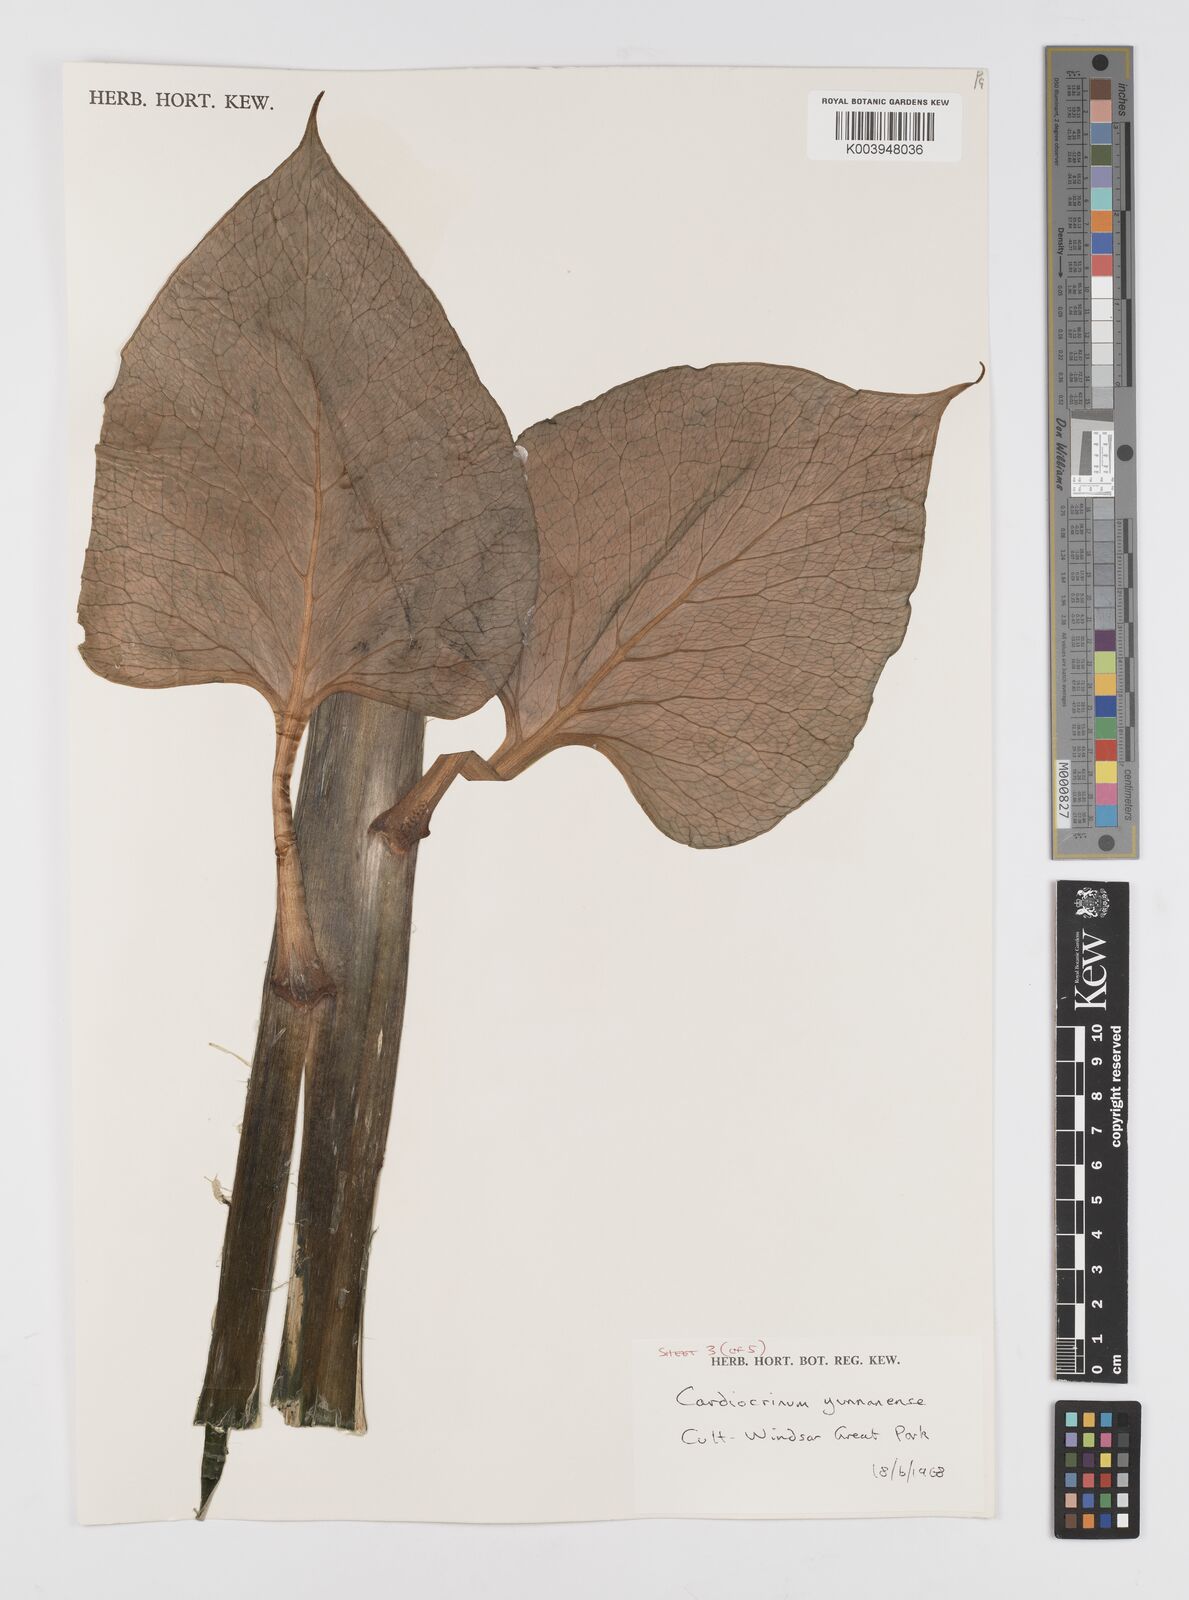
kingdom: Plantae
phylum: Tracheophyta
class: Liliopsida
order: Liliales
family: Liliaceae
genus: Cardiocrinum
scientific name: Cardiocrinum
